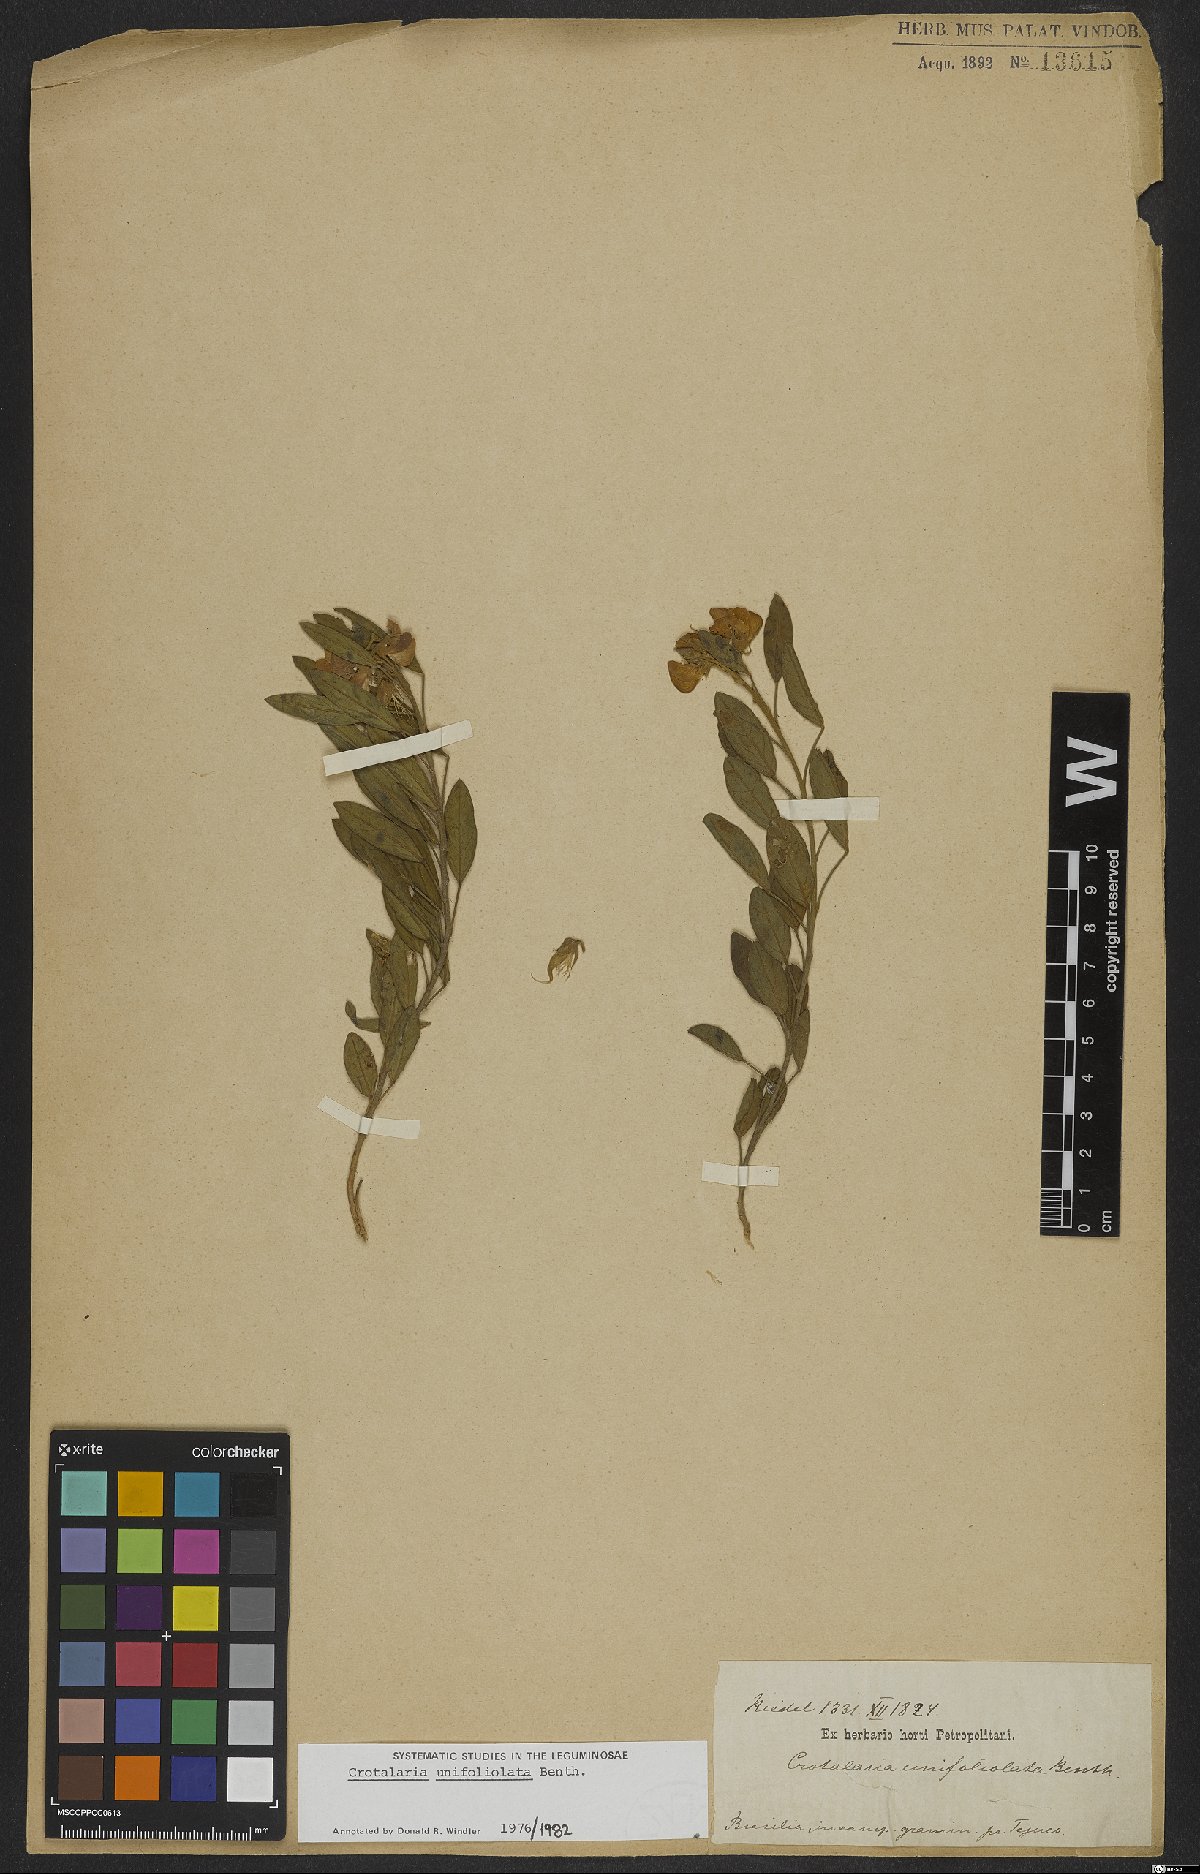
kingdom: Plantae
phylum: Tracheophyta
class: Magnoliopsida
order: Fabales
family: Fabaceae
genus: Crotalaria
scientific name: Crotalaria unifoliolata
